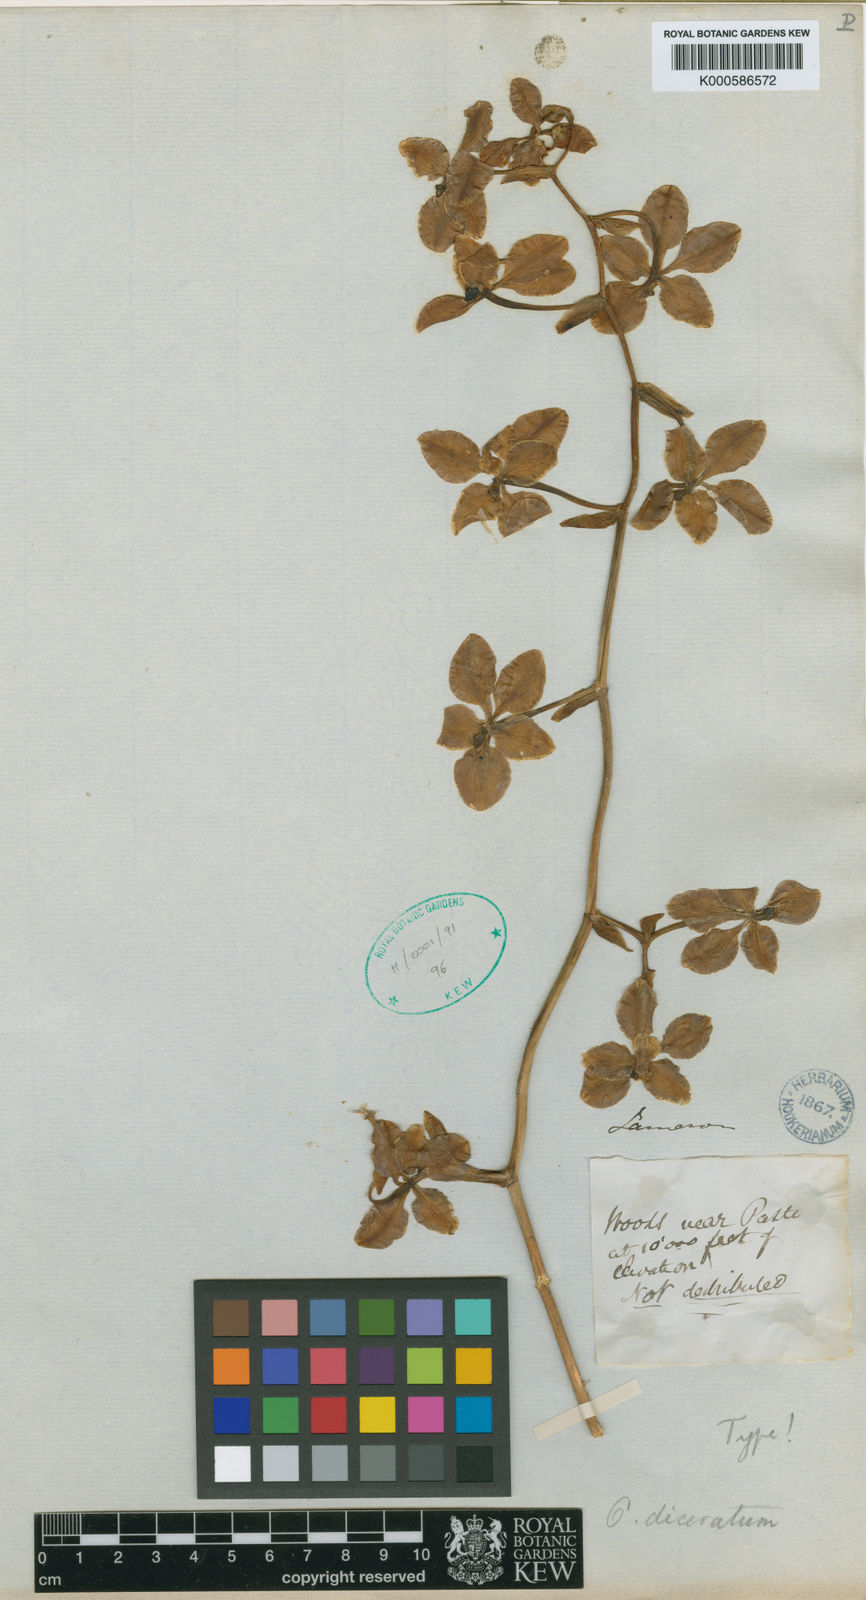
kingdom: Plantae
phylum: Tracheophyta
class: Liliopsida
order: Asparagales
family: Orchidaceae
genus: Cyrtochilum
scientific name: Cyrtochilum diceratum
